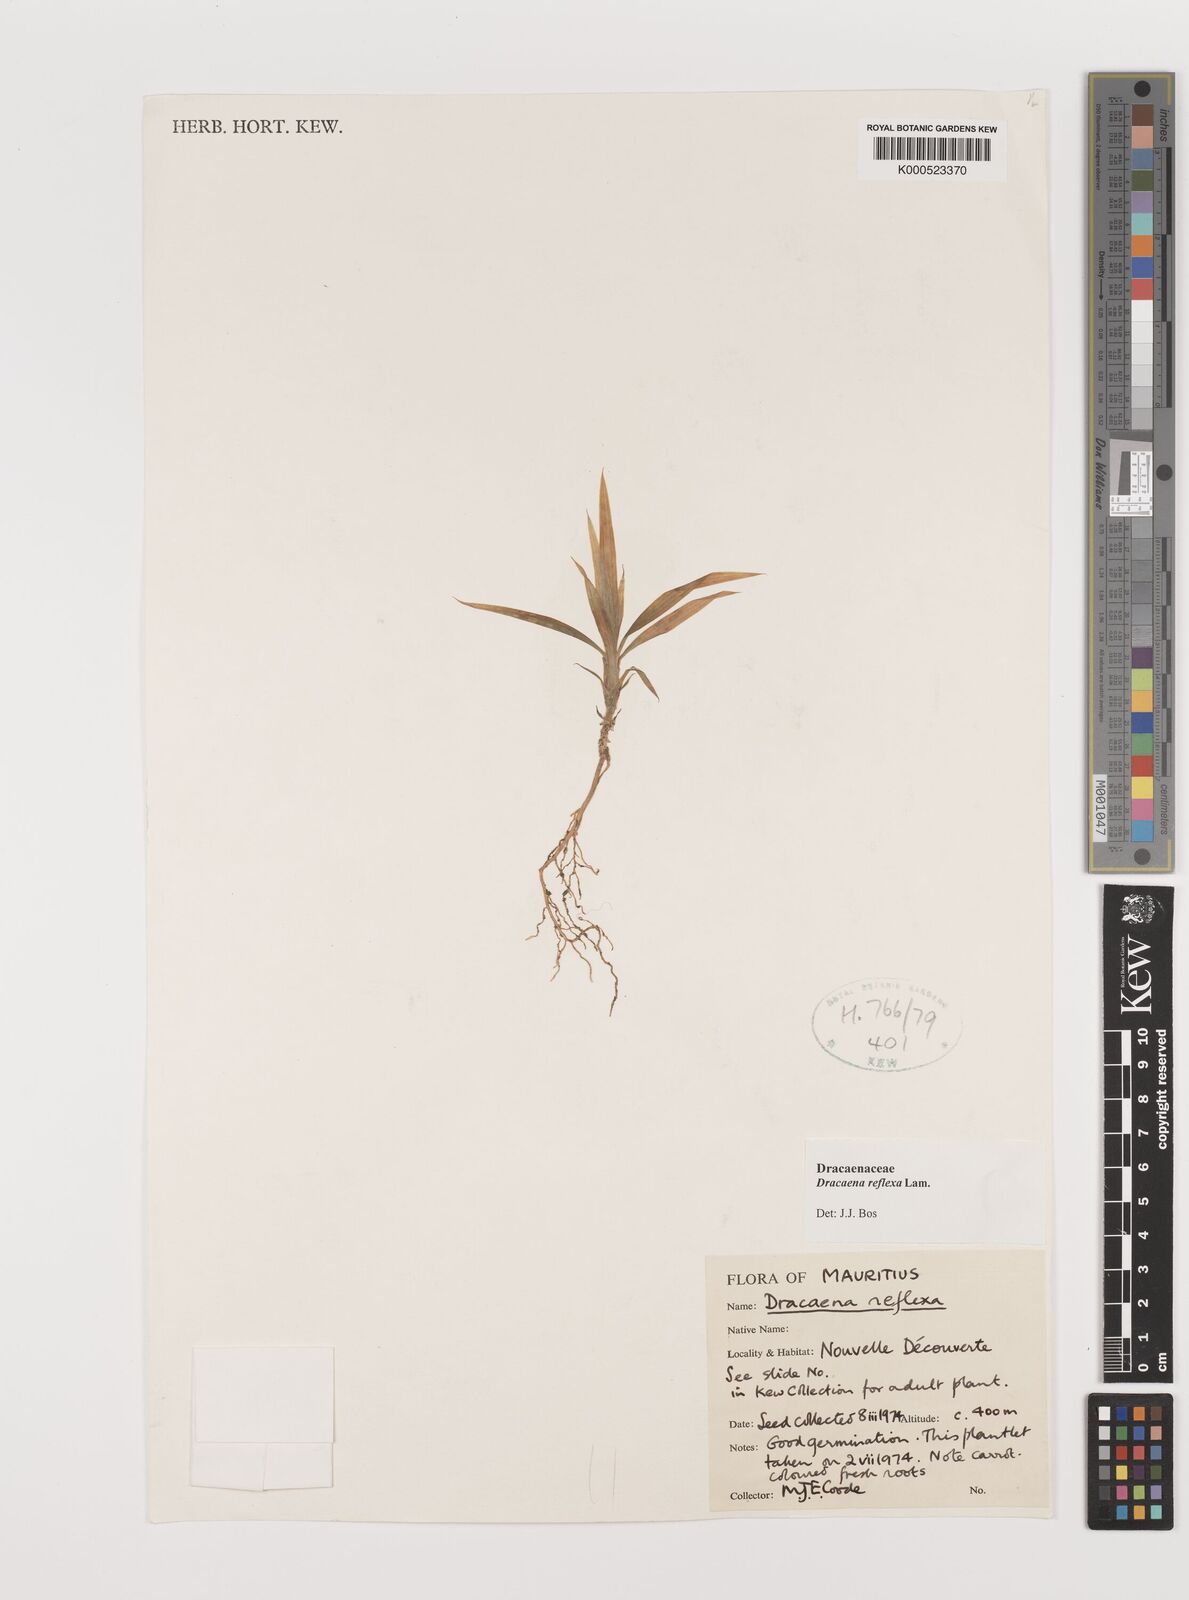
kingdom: Plantae
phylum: Tracheophyta
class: Liliopsida
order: Asparagales
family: Asparagaceae
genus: Dracaena
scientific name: Dracaena reflexa
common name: Song-of-india
